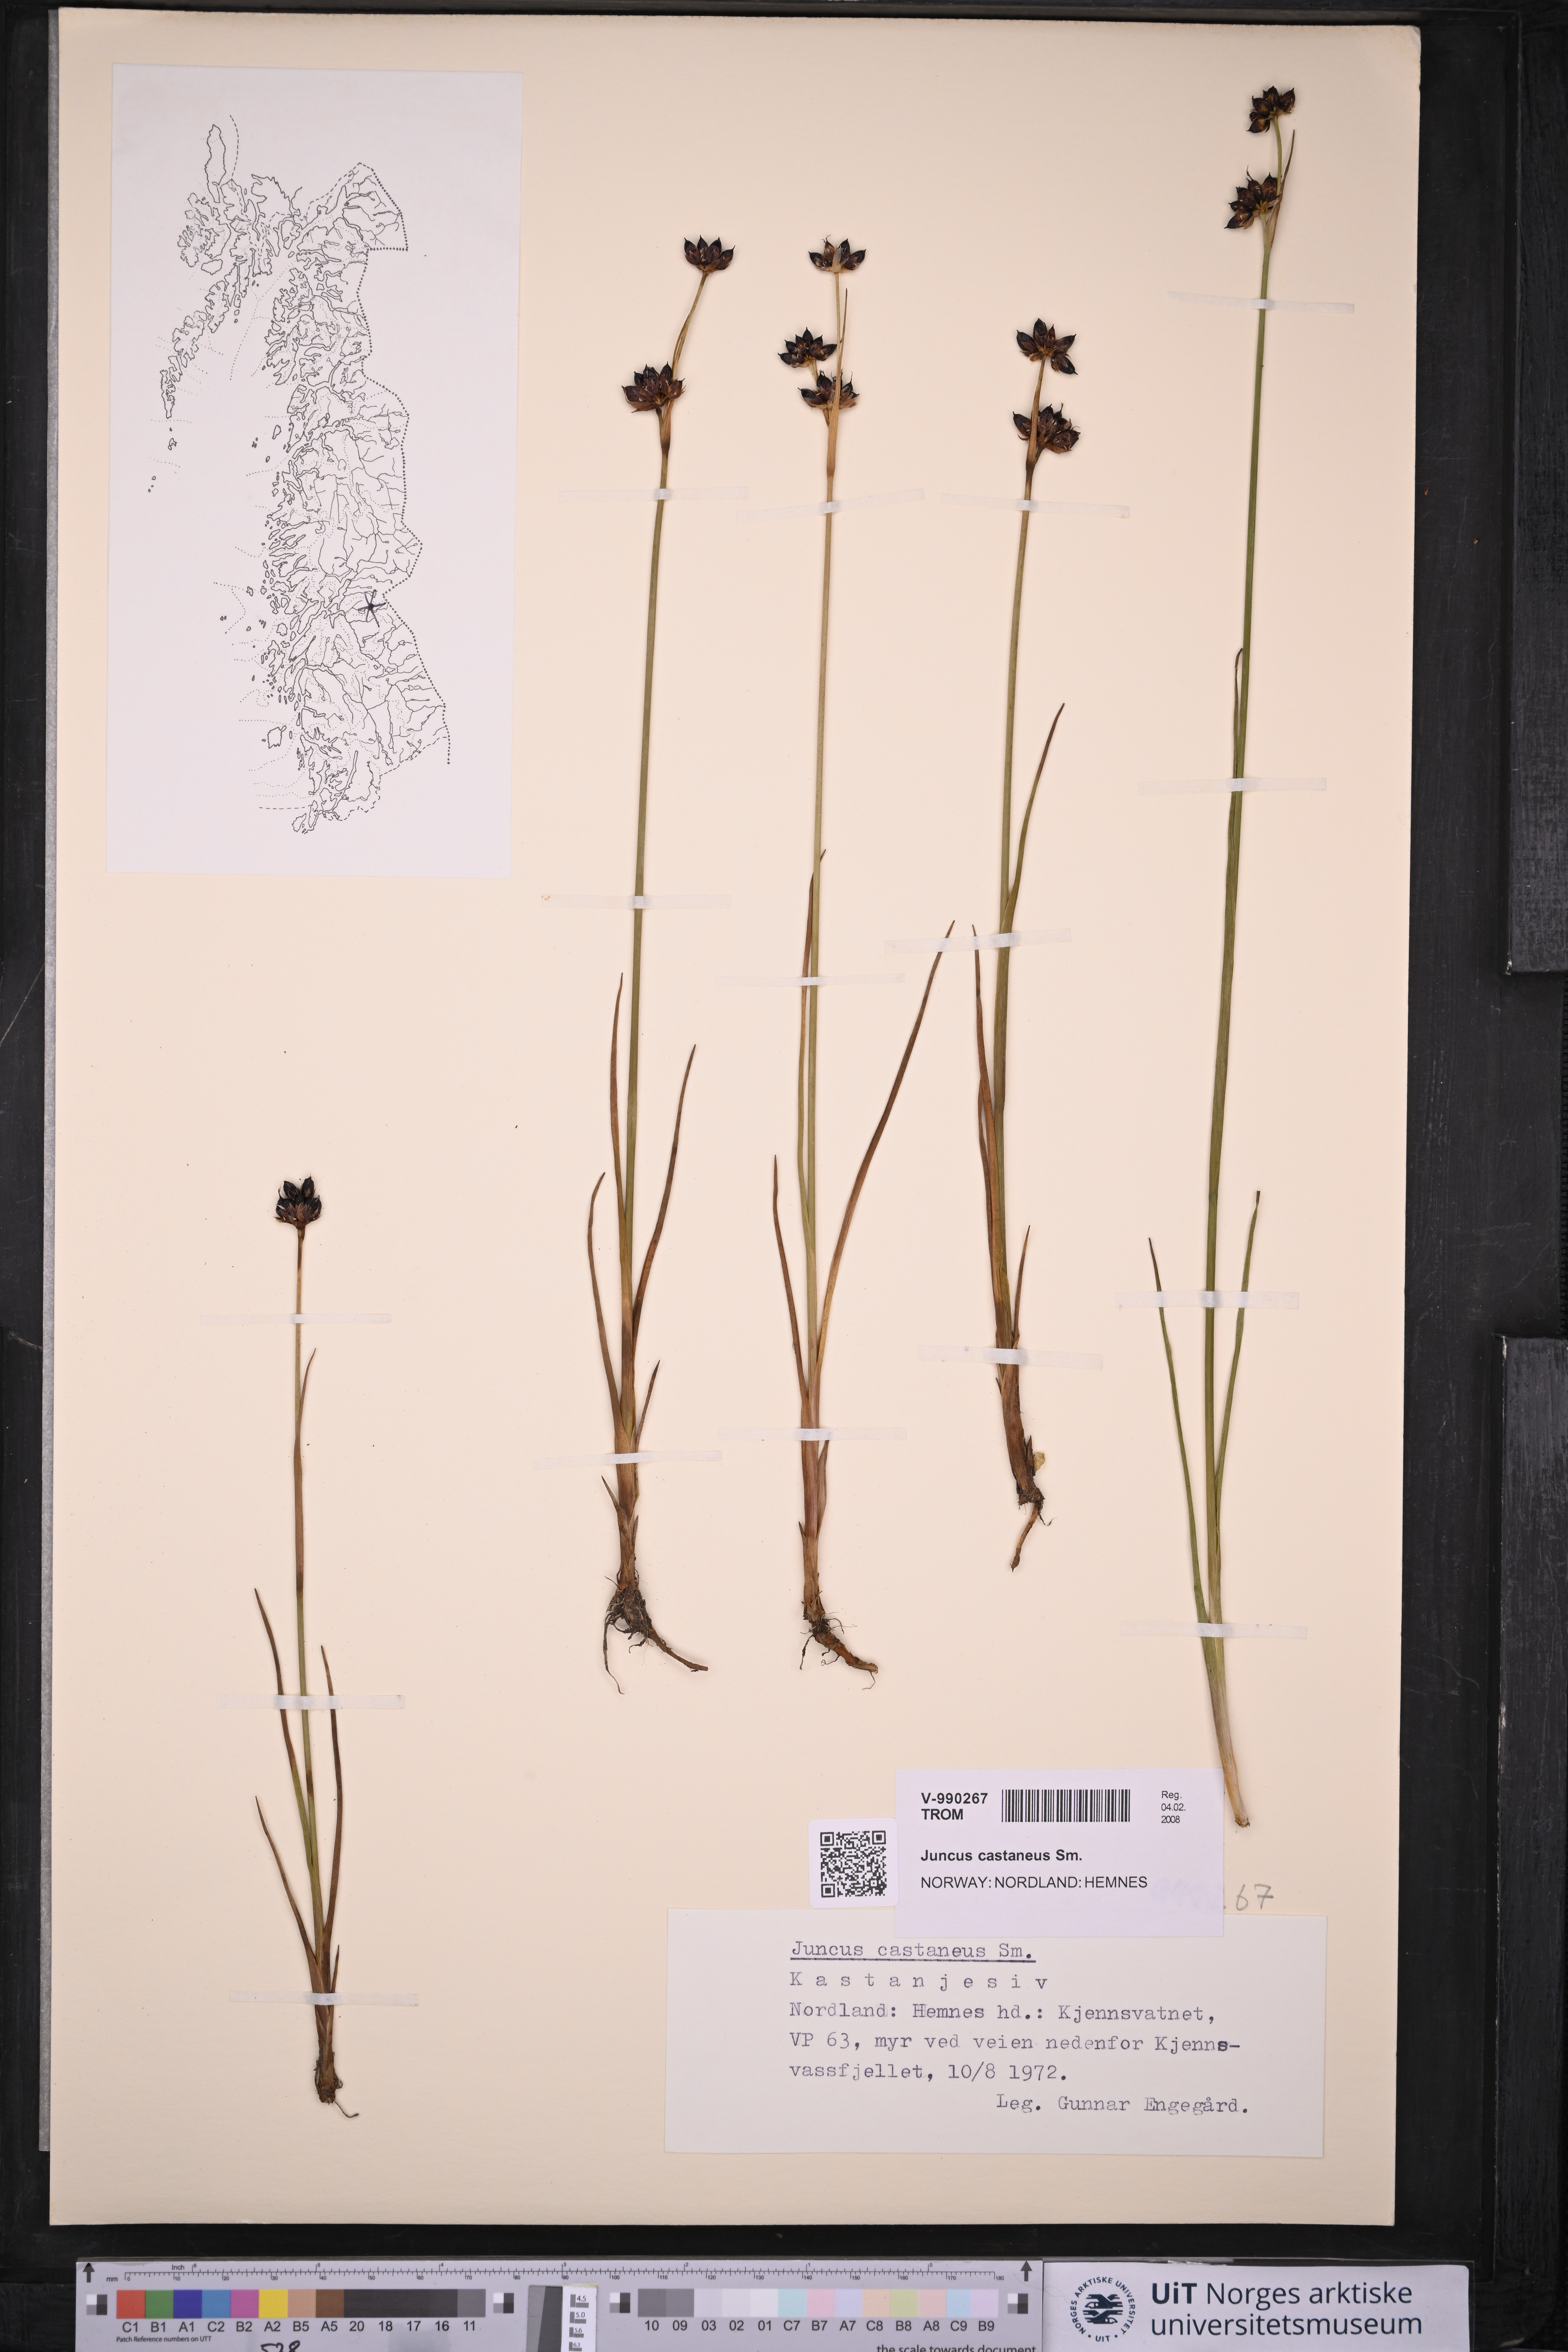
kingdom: Plantae
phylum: Tracheophyta
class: Liliopsida
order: Poales
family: Juncaceae
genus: Juncus
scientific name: Juncus castaneus
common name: Chestnut rush
